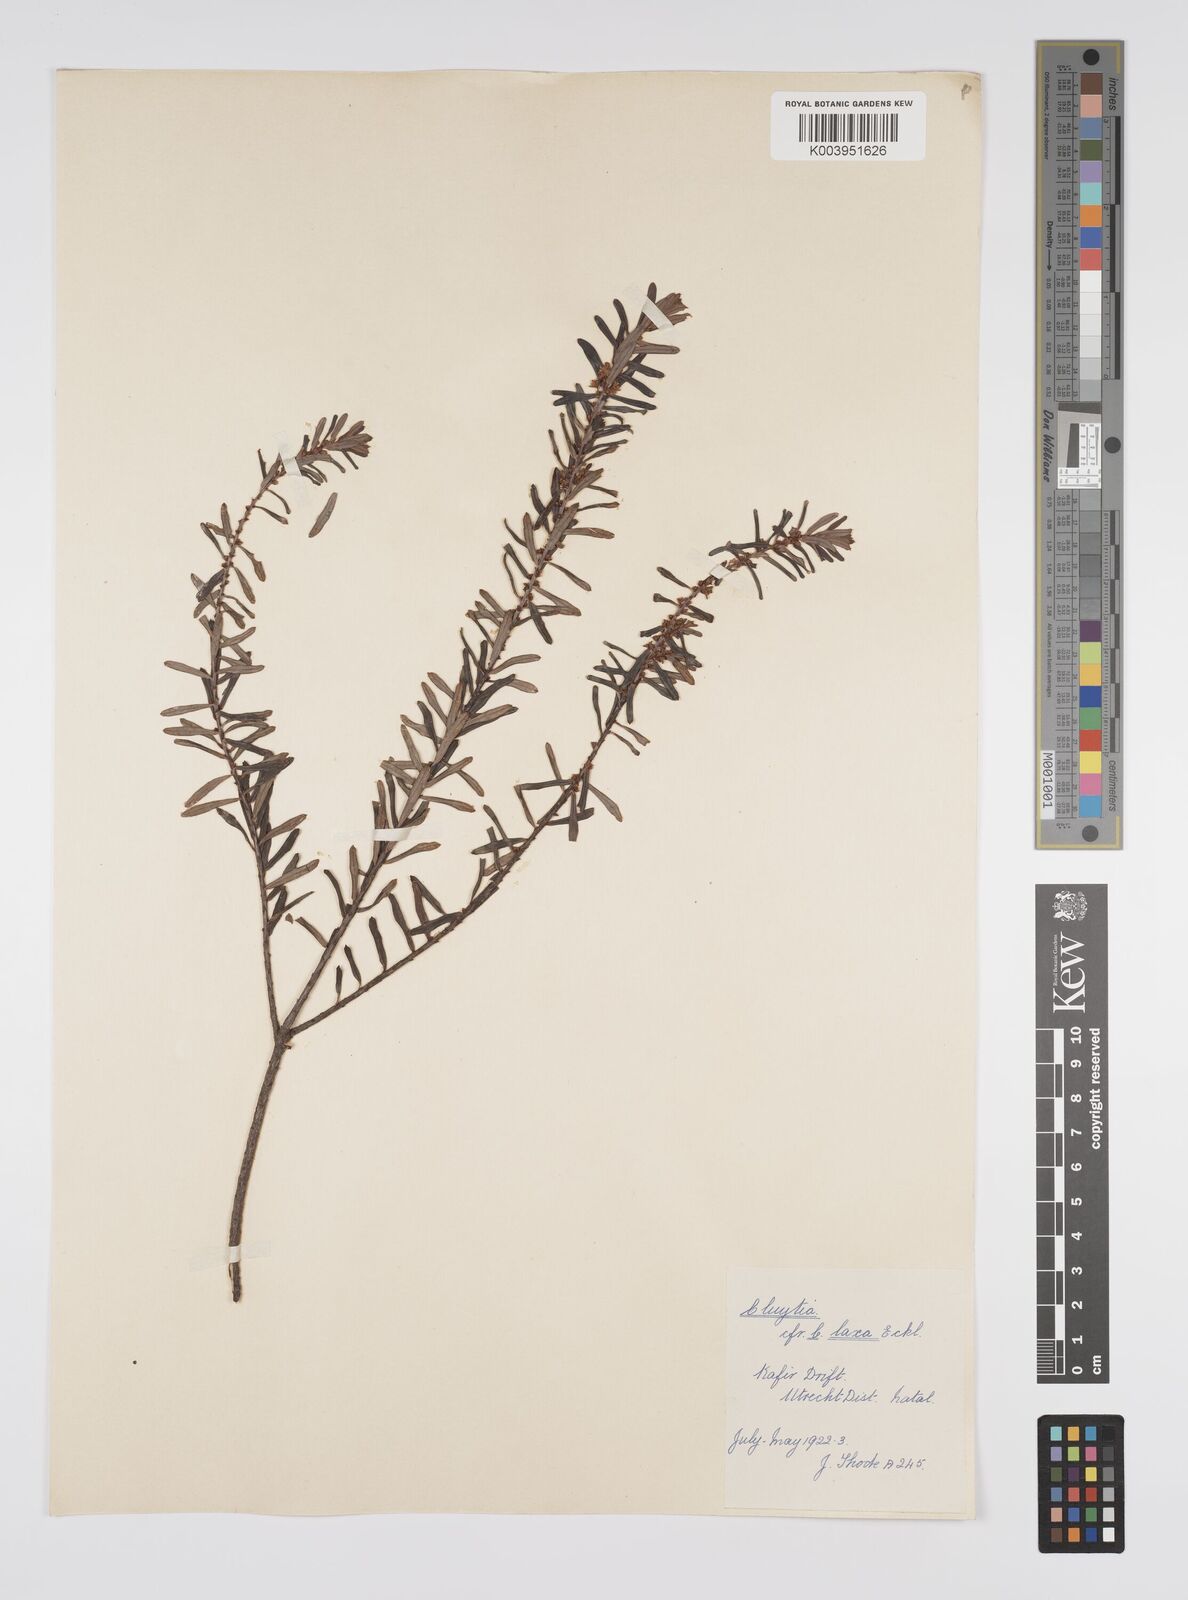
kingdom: Plantae
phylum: Tracheophyta
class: Magnoliopsida
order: Malpighiales
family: Peraceae
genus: Clutia
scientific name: Clutia laxa
